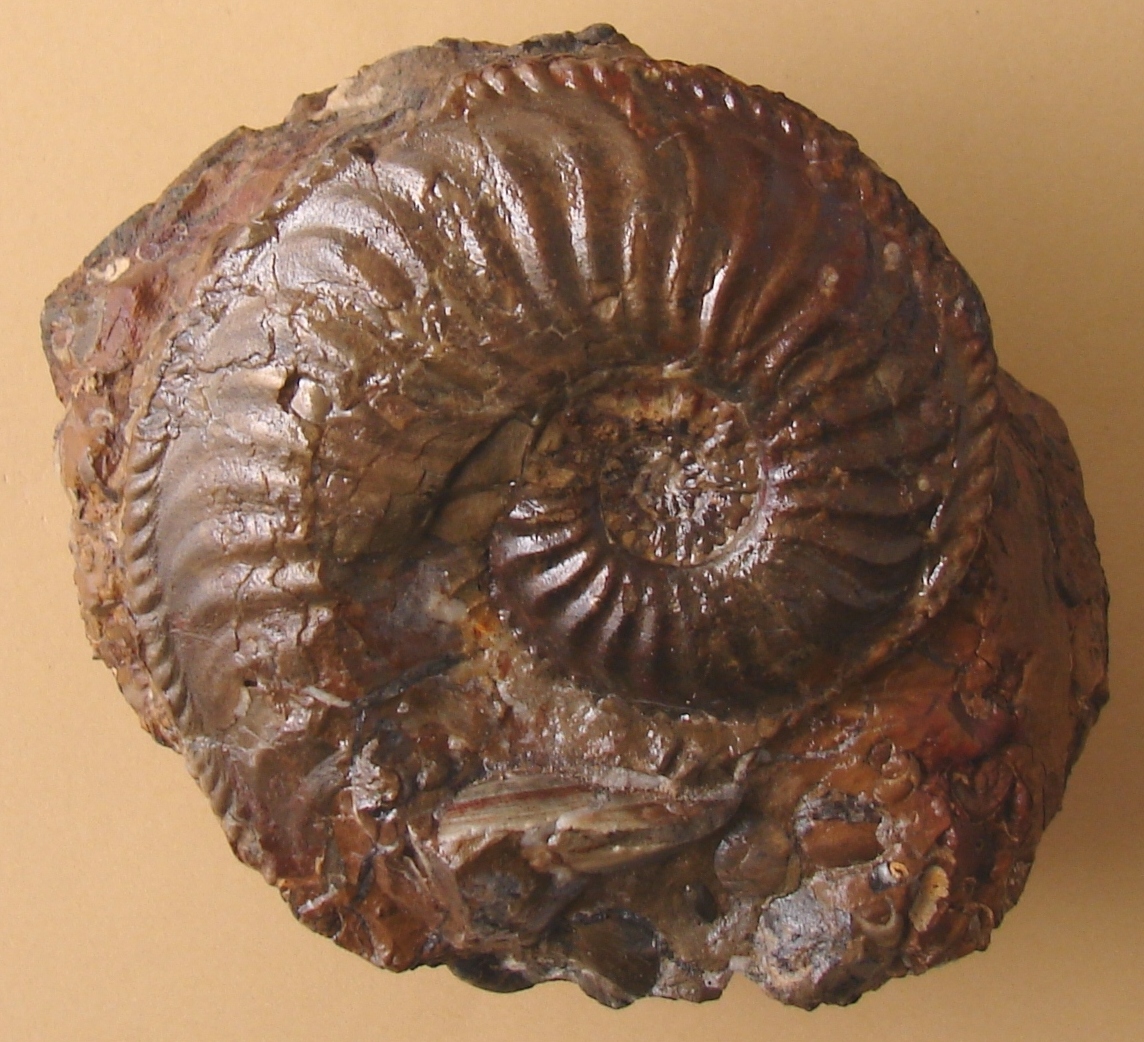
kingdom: Animalia
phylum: Mollusca
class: Cephalopoda
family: Amaltheidae
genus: Amaltheus
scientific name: Amaltheus margaritatus
